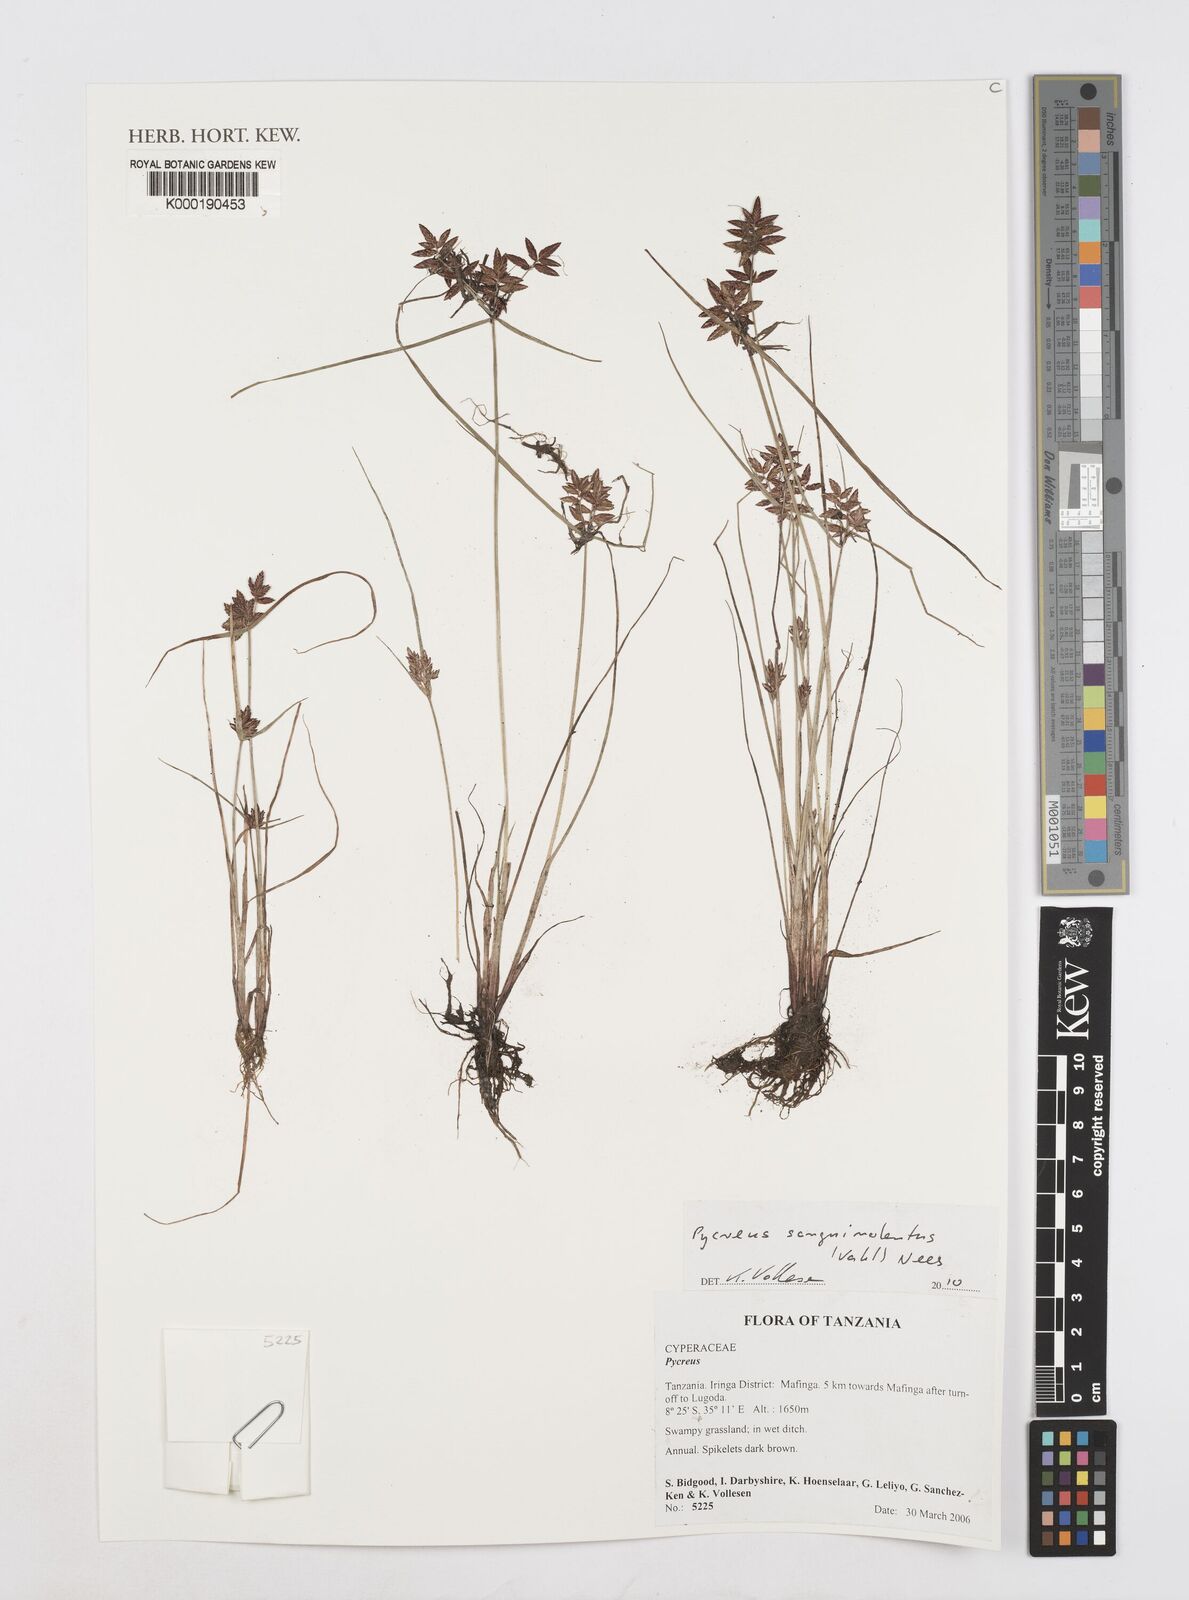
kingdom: Plantae
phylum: Tracheophyta
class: Liliopsida
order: Poales
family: Cyperaceae
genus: Cyperus
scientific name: Cyperus
